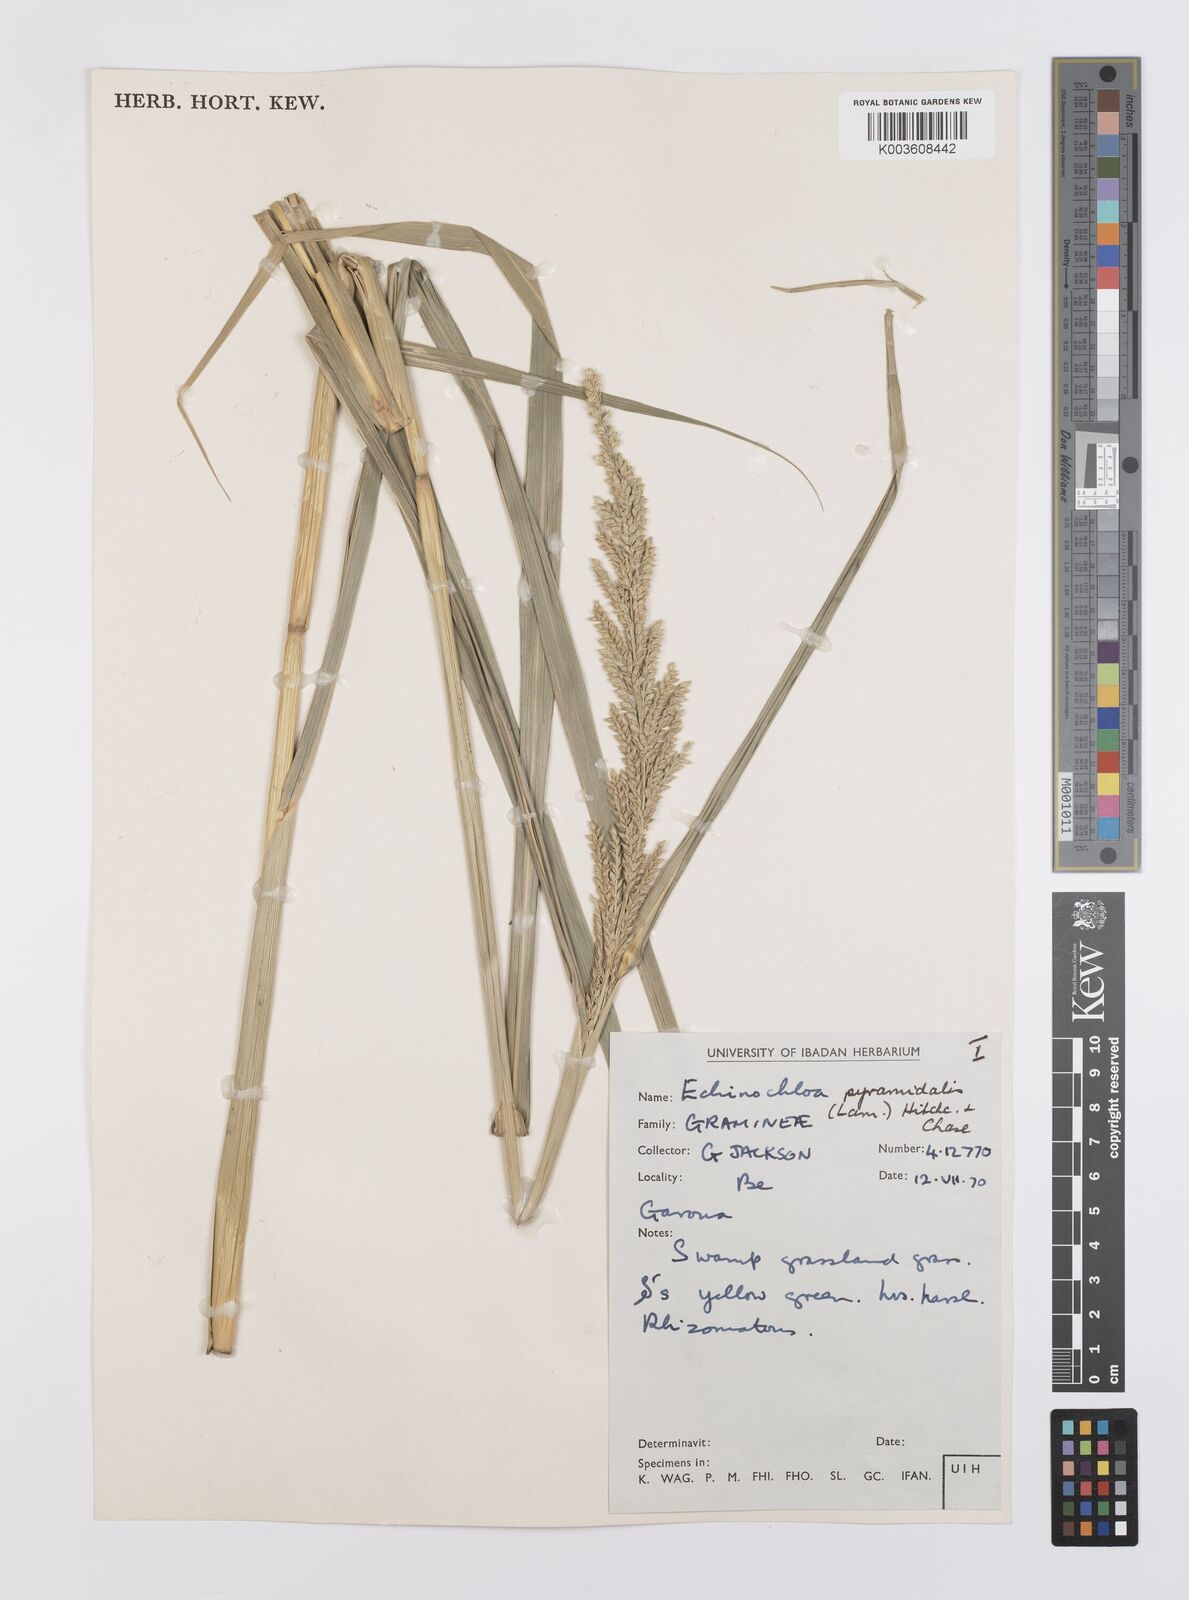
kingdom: Plantae
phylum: Tracheophyta
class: Liliopsida
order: Poales
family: Poaceae
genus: Echinochloa
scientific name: Echinochloa pyramidalis
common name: Antelope grass
